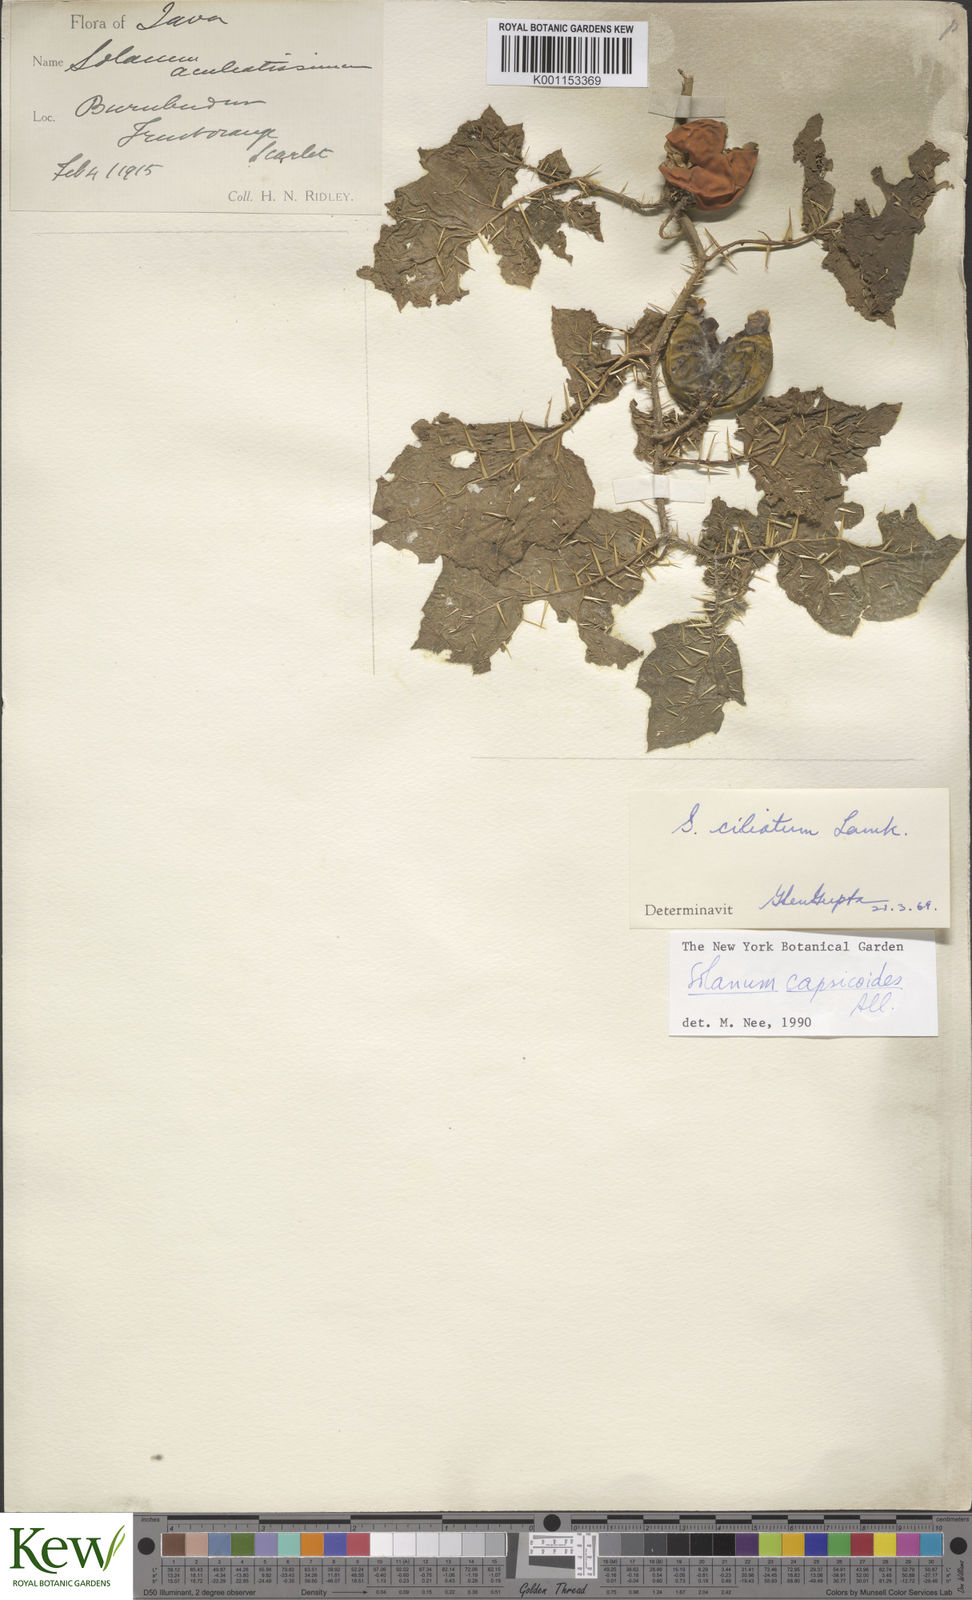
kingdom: Plantae
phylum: Tracheophyta
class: Magnoliopsida
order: Solanales
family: Solanaceae
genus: Solanum
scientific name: Solanum aculeatissimum
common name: Dutch eggplant
